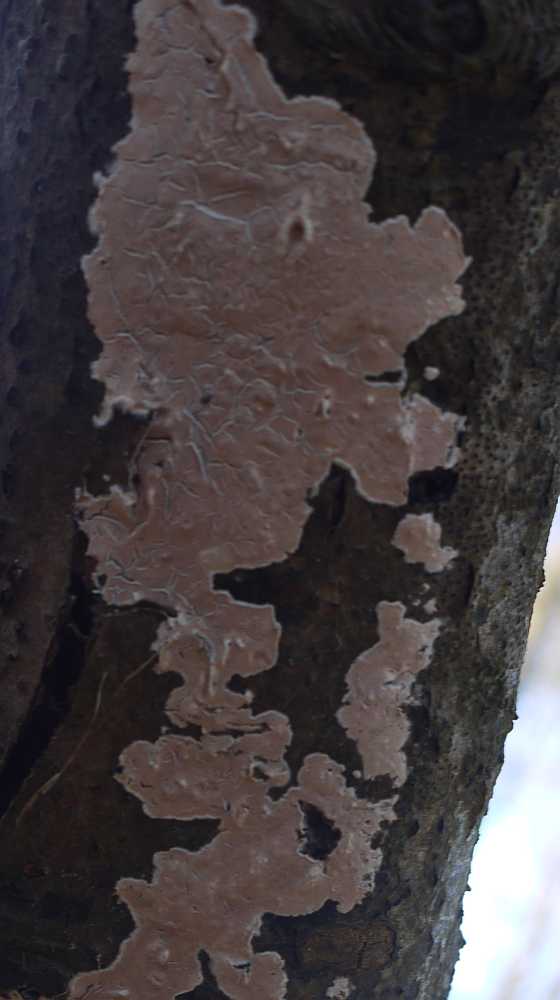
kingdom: Fungi
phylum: Basidiomycota
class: Agaricomycetes
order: Agaricales
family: Physalacriaceae
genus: Cylindrobasidium
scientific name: Cylindrobasidium evolvens
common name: sprækkehinde
